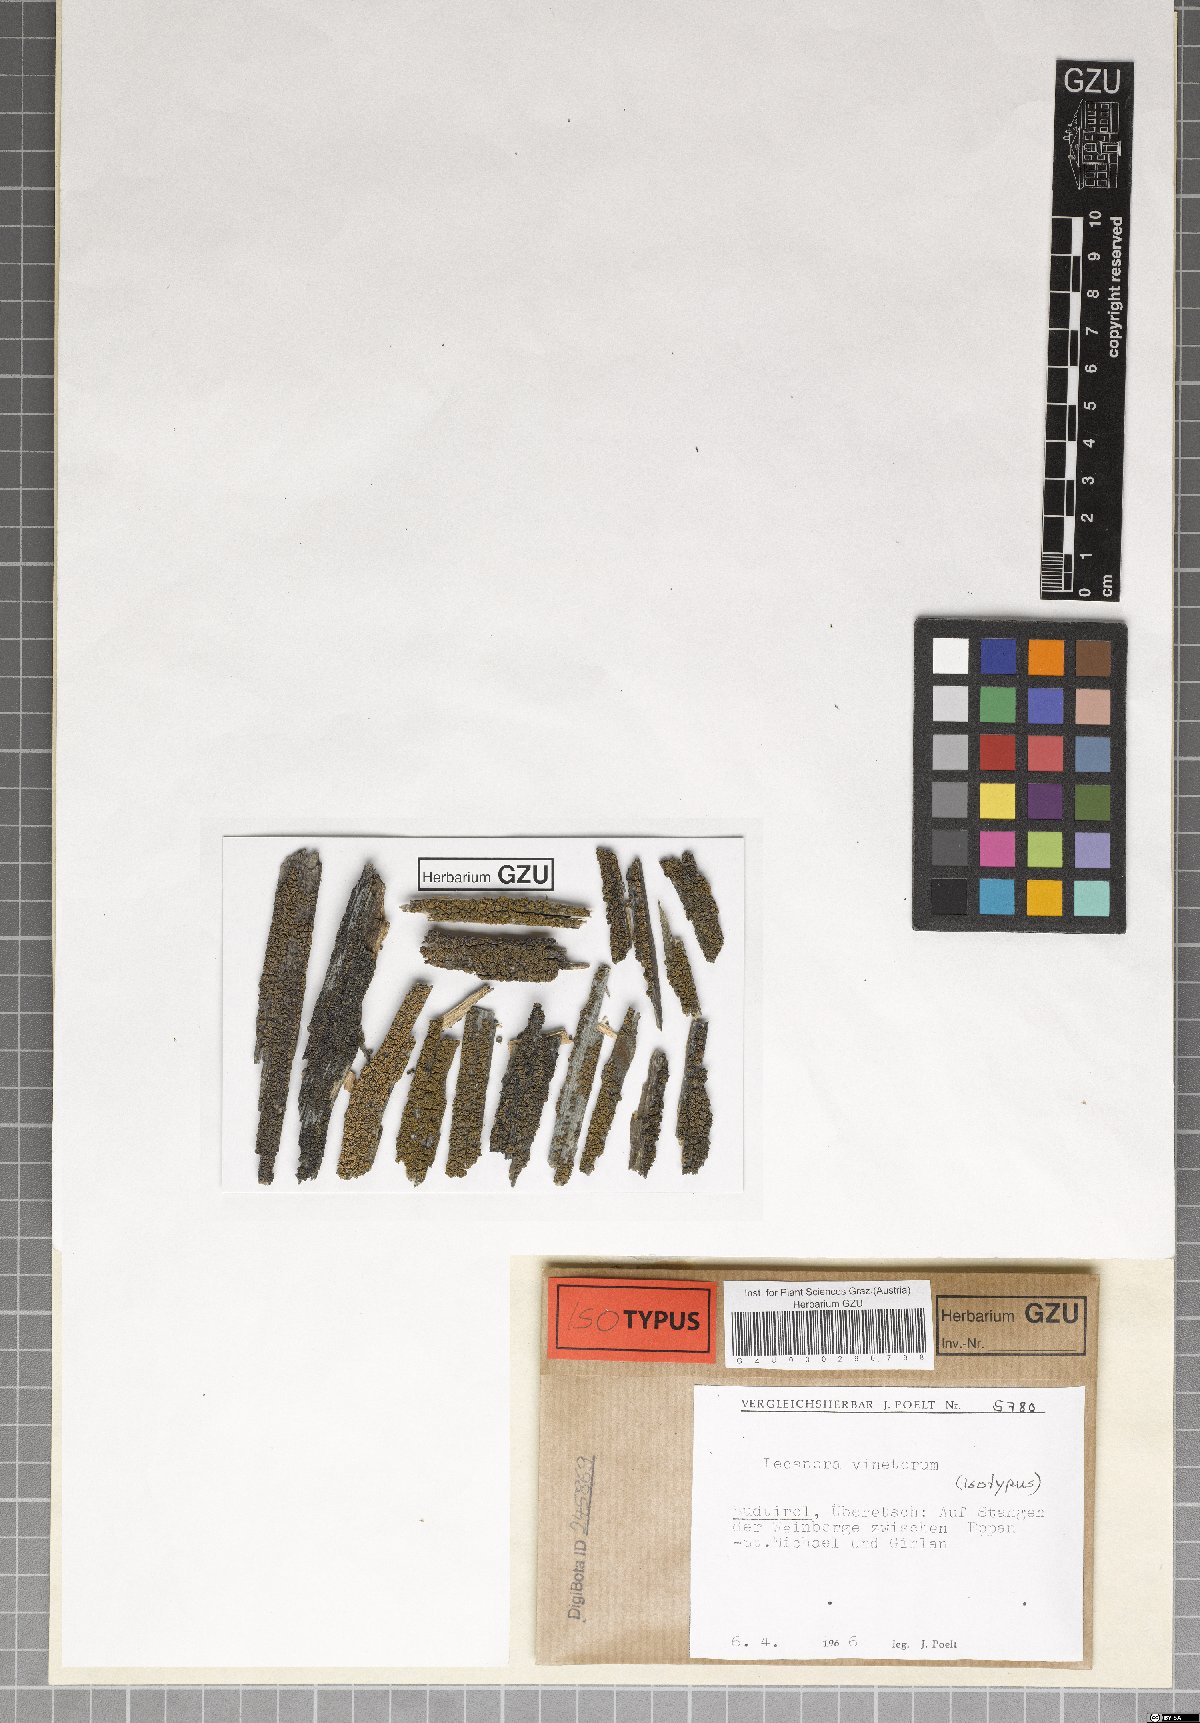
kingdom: Fungi
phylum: Ascomycota
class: Lecanoromycetes
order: Lecanorales
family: Lecanoraceae
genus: Lecanora
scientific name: Lecanora vinetorum
